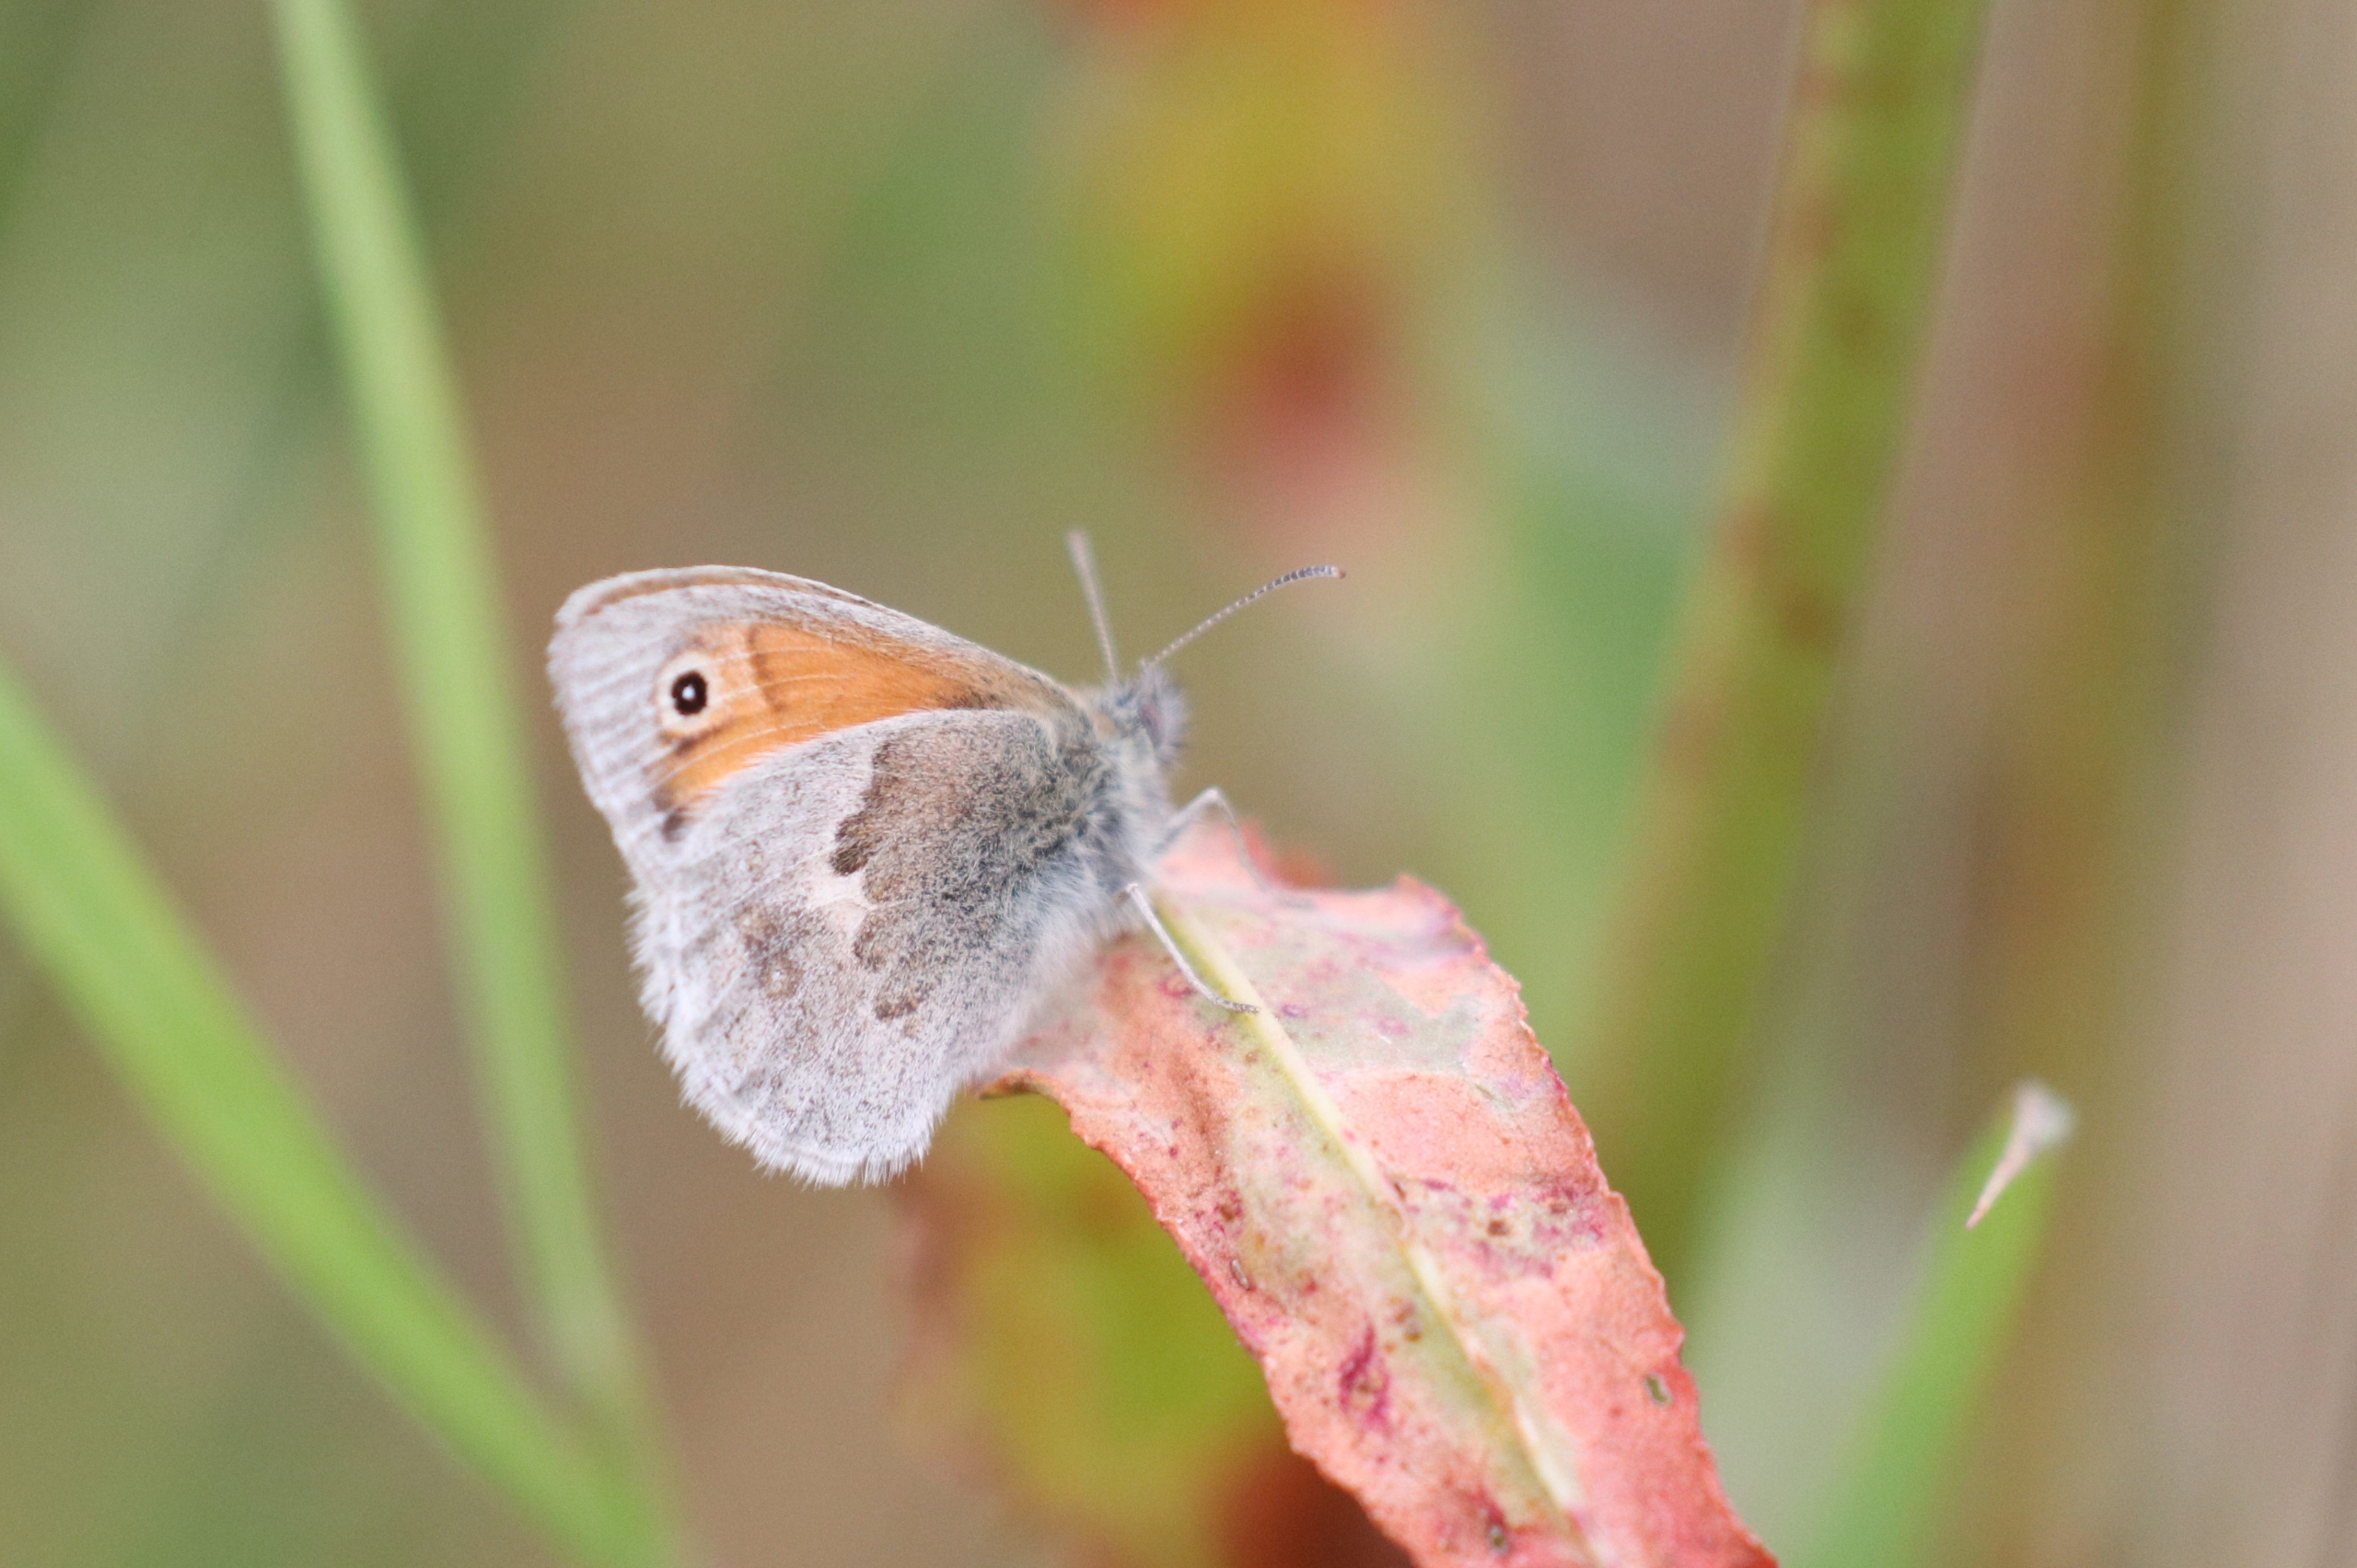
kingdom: Animalia
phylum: Arthropoda
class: Insecta
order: Lepidoptera
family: Nymphalidae
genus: Coenonympha
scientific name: Coenonympha pamphilus
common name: Okkergul randøje
